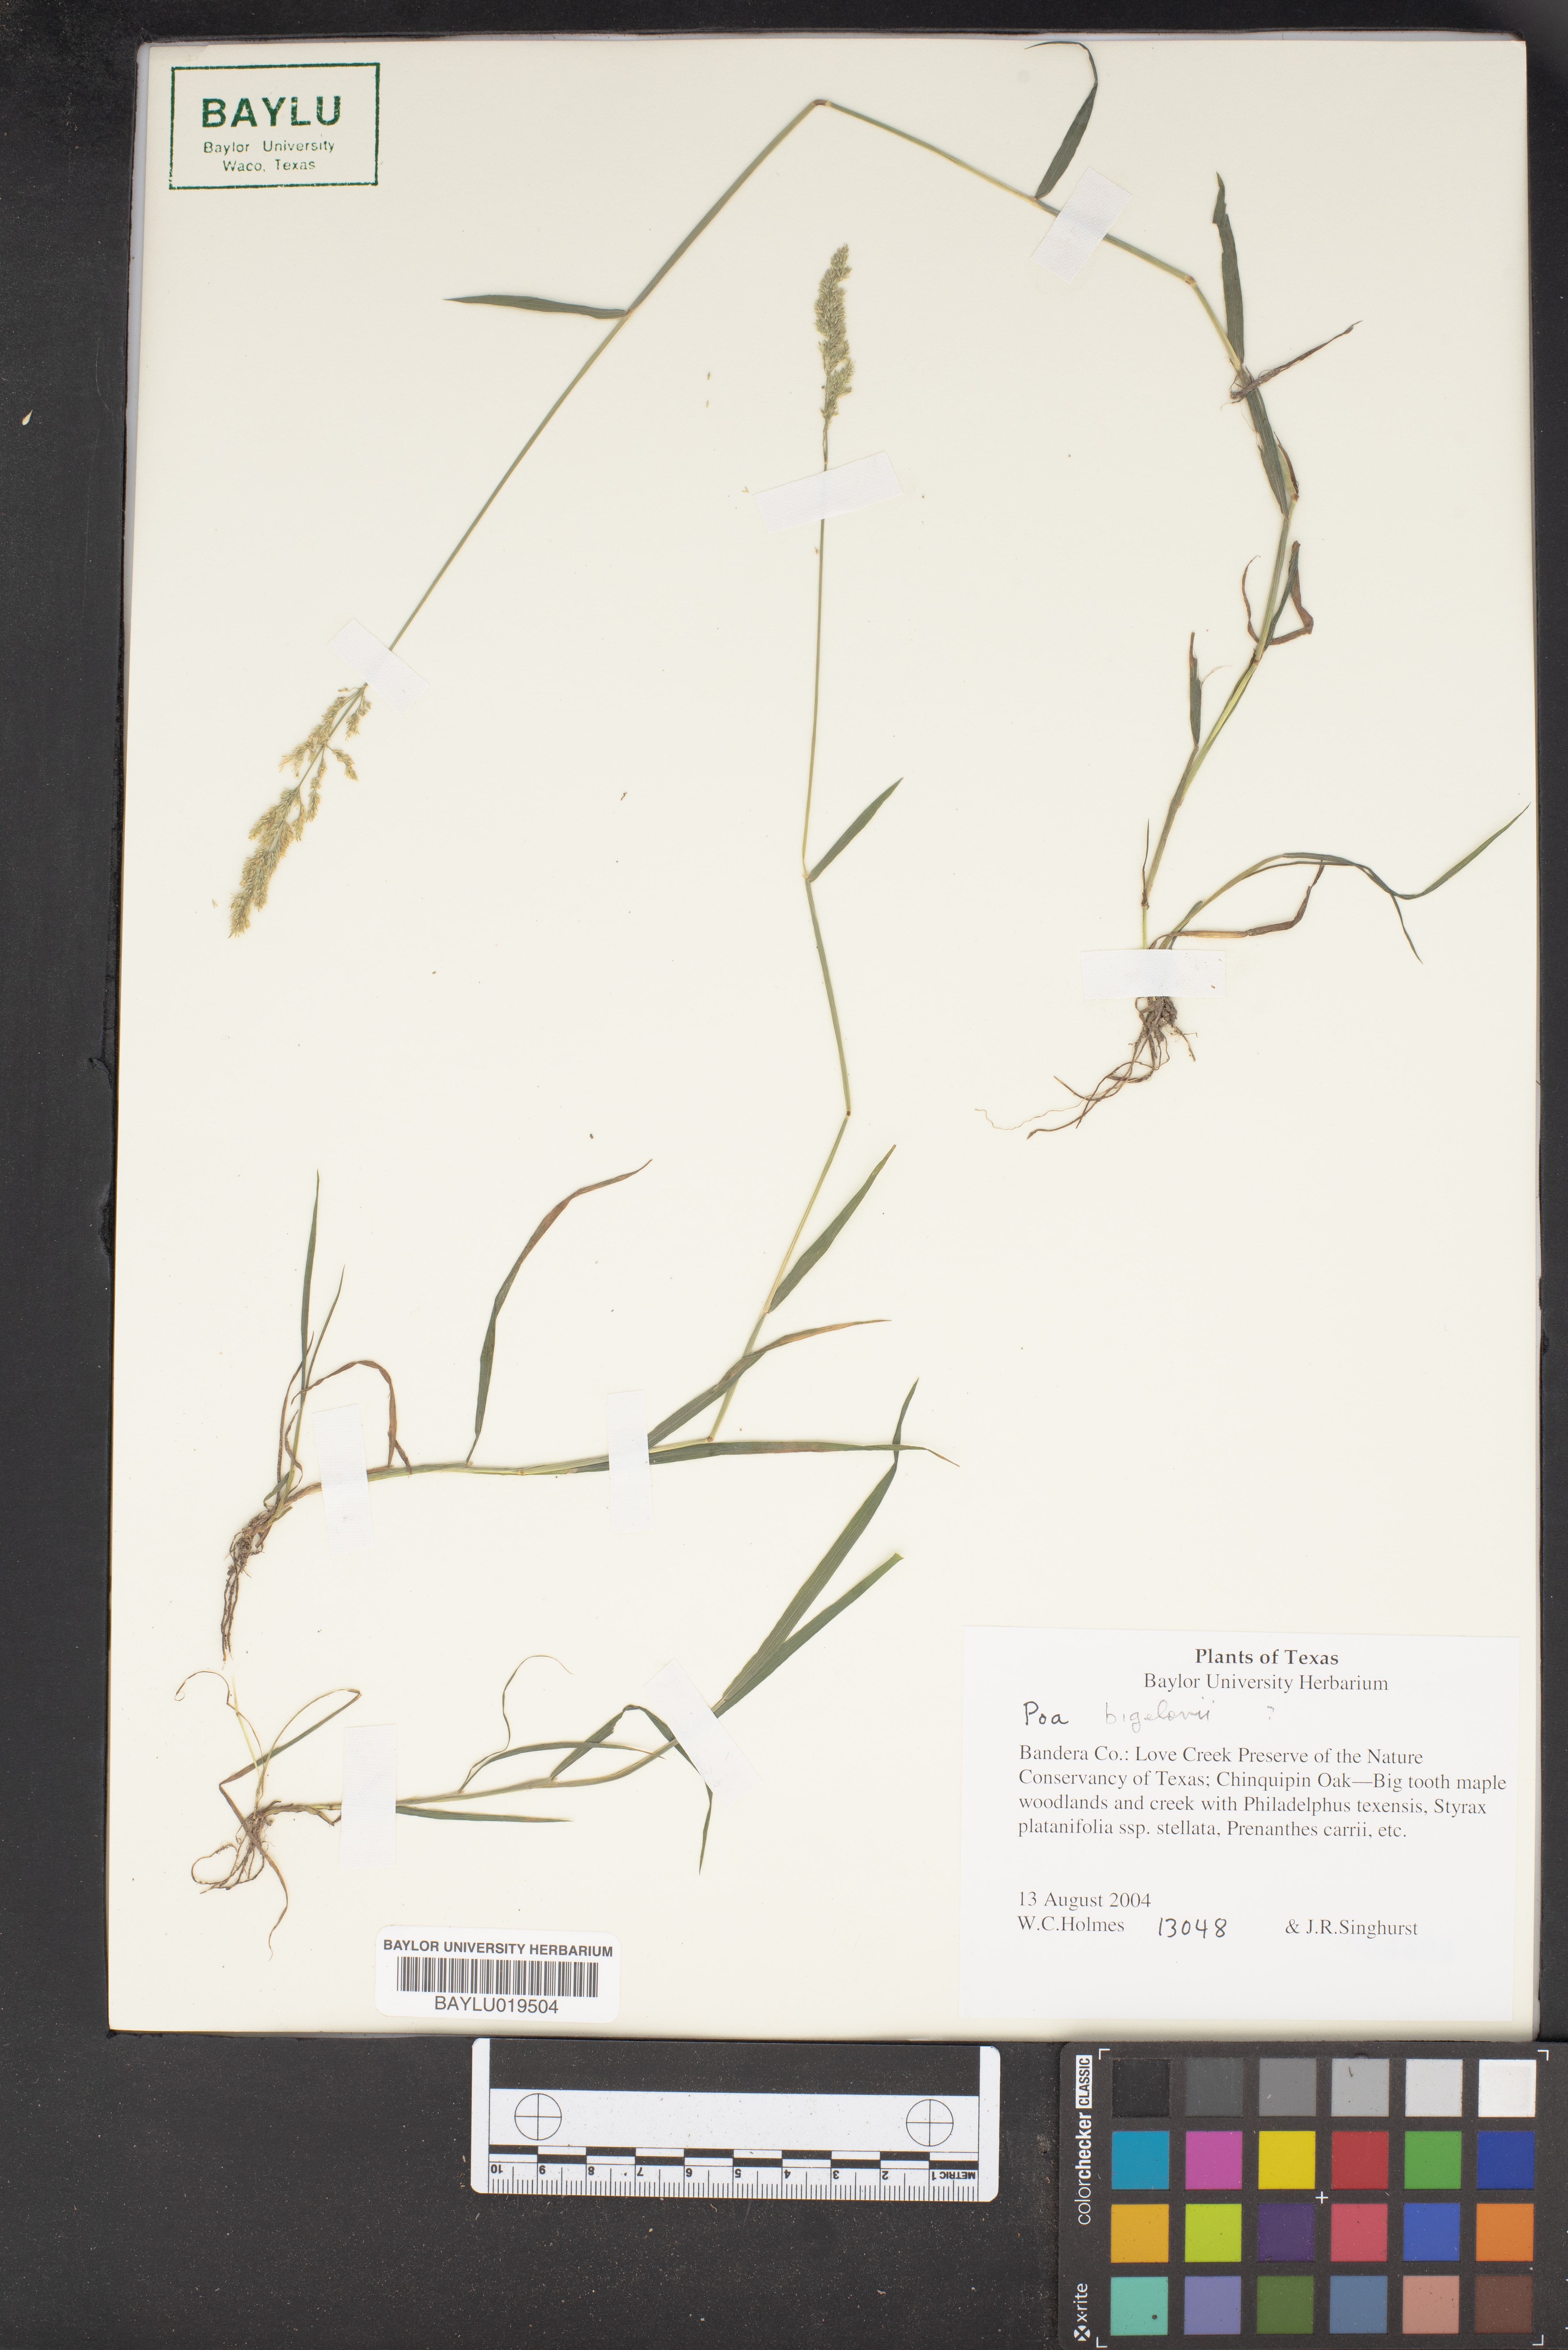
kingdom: Plantae
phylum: Tracheophyta
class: Liliopsida
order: Poales
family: Poaceae
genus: Poa
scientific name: Poa bigelovii
